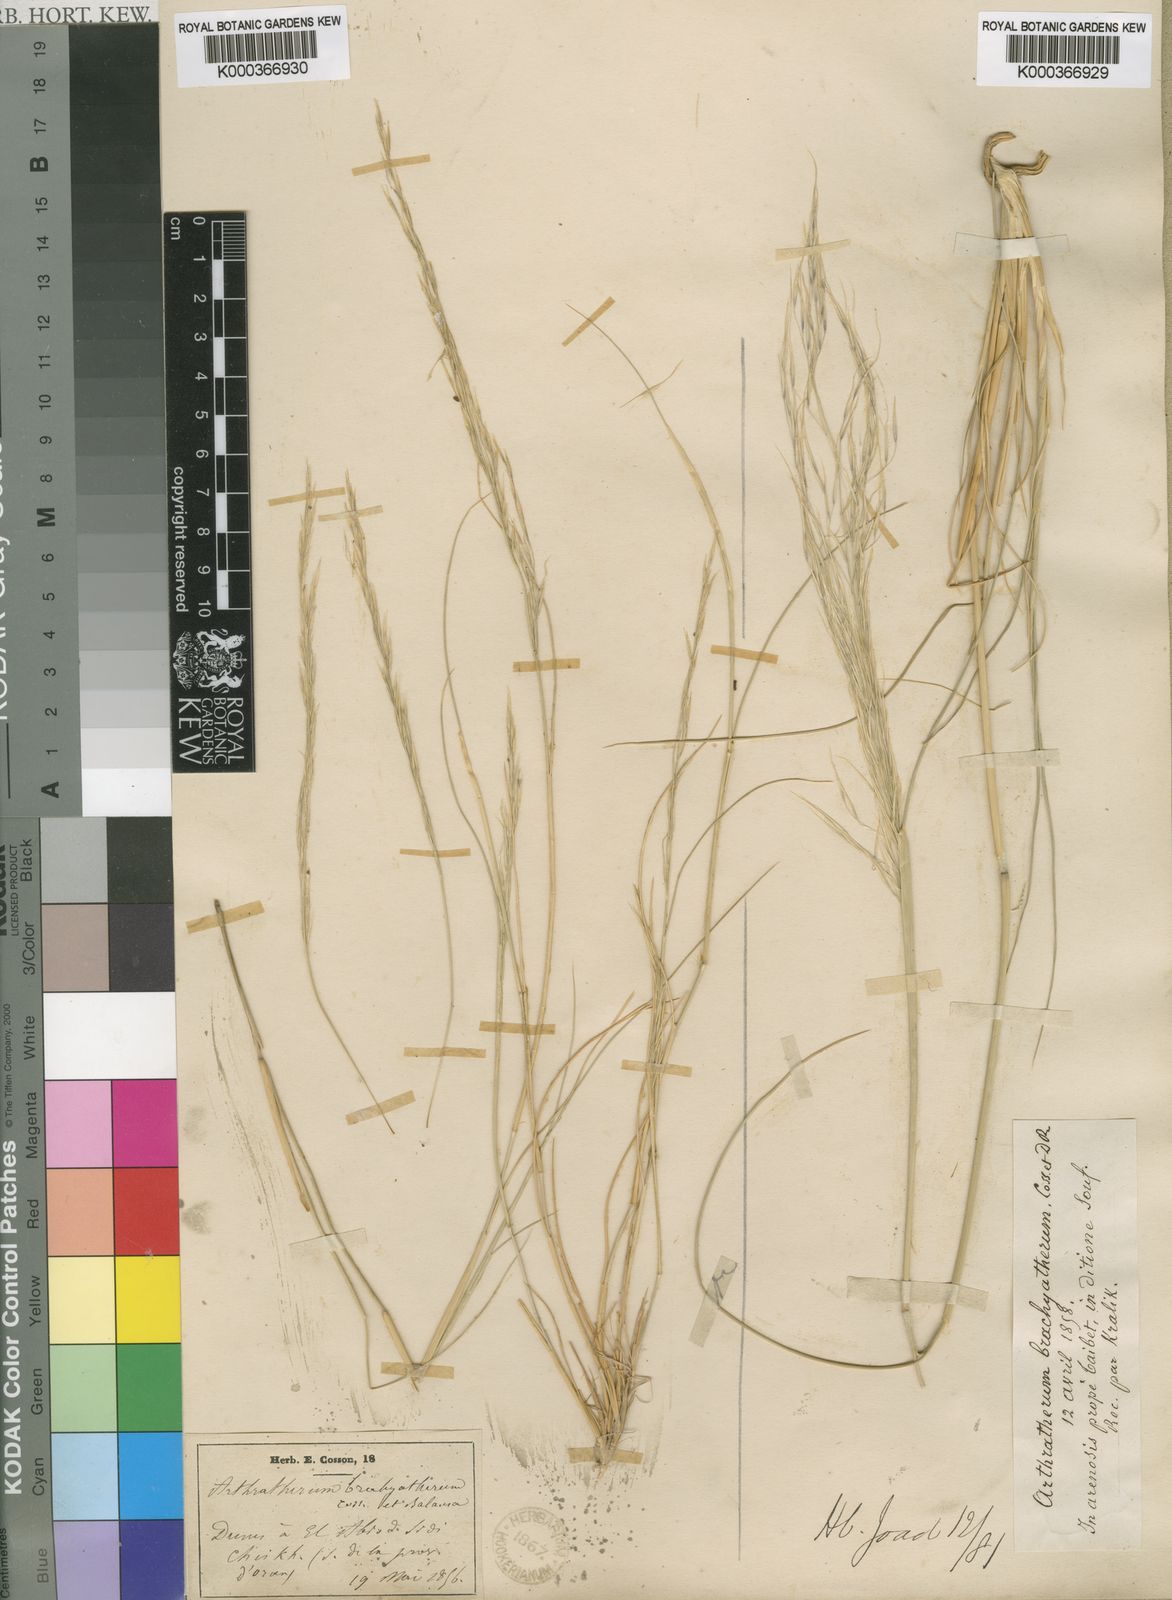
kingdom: Plantae
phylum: Tracheophyta
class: Liliopsida
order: Poales
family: Poaceae
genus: Stipagrostis
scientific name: Stipagrostis brachyathera
